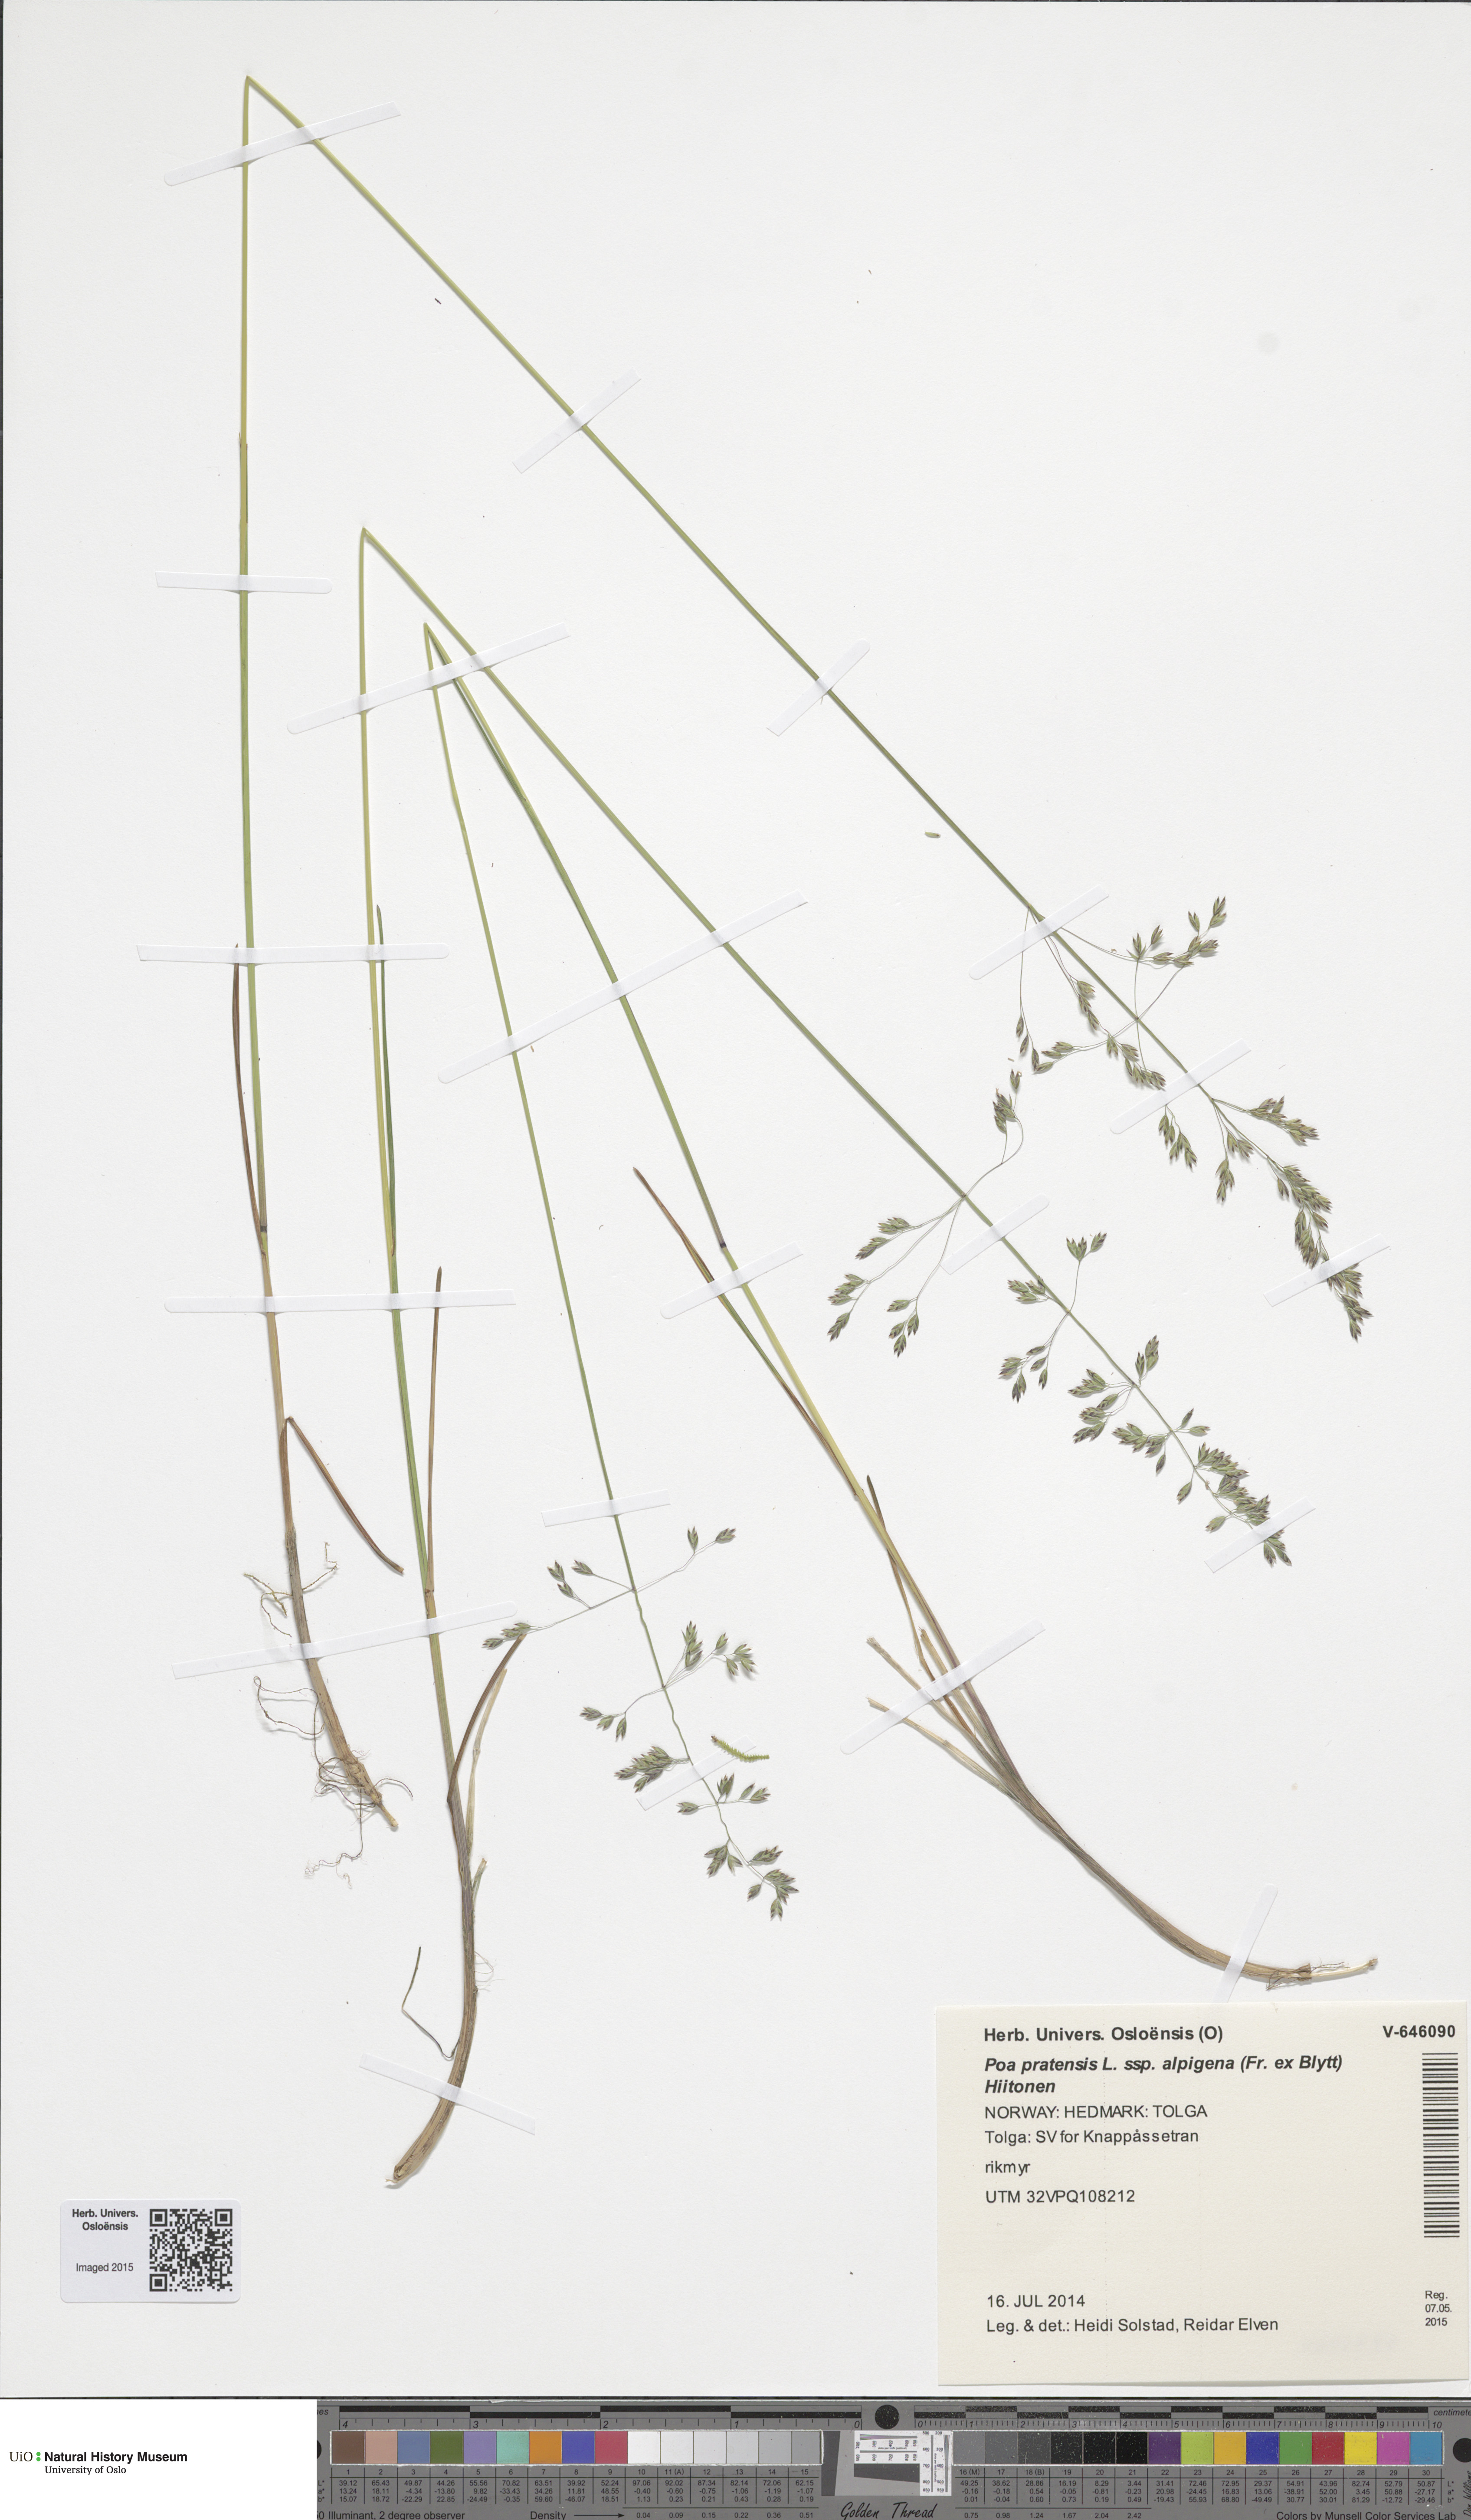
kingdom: Plantae
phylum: Tracheophyta
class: Liliopsida
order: Poales
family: Poaceae
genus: Poa
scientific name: Poa alpigena
